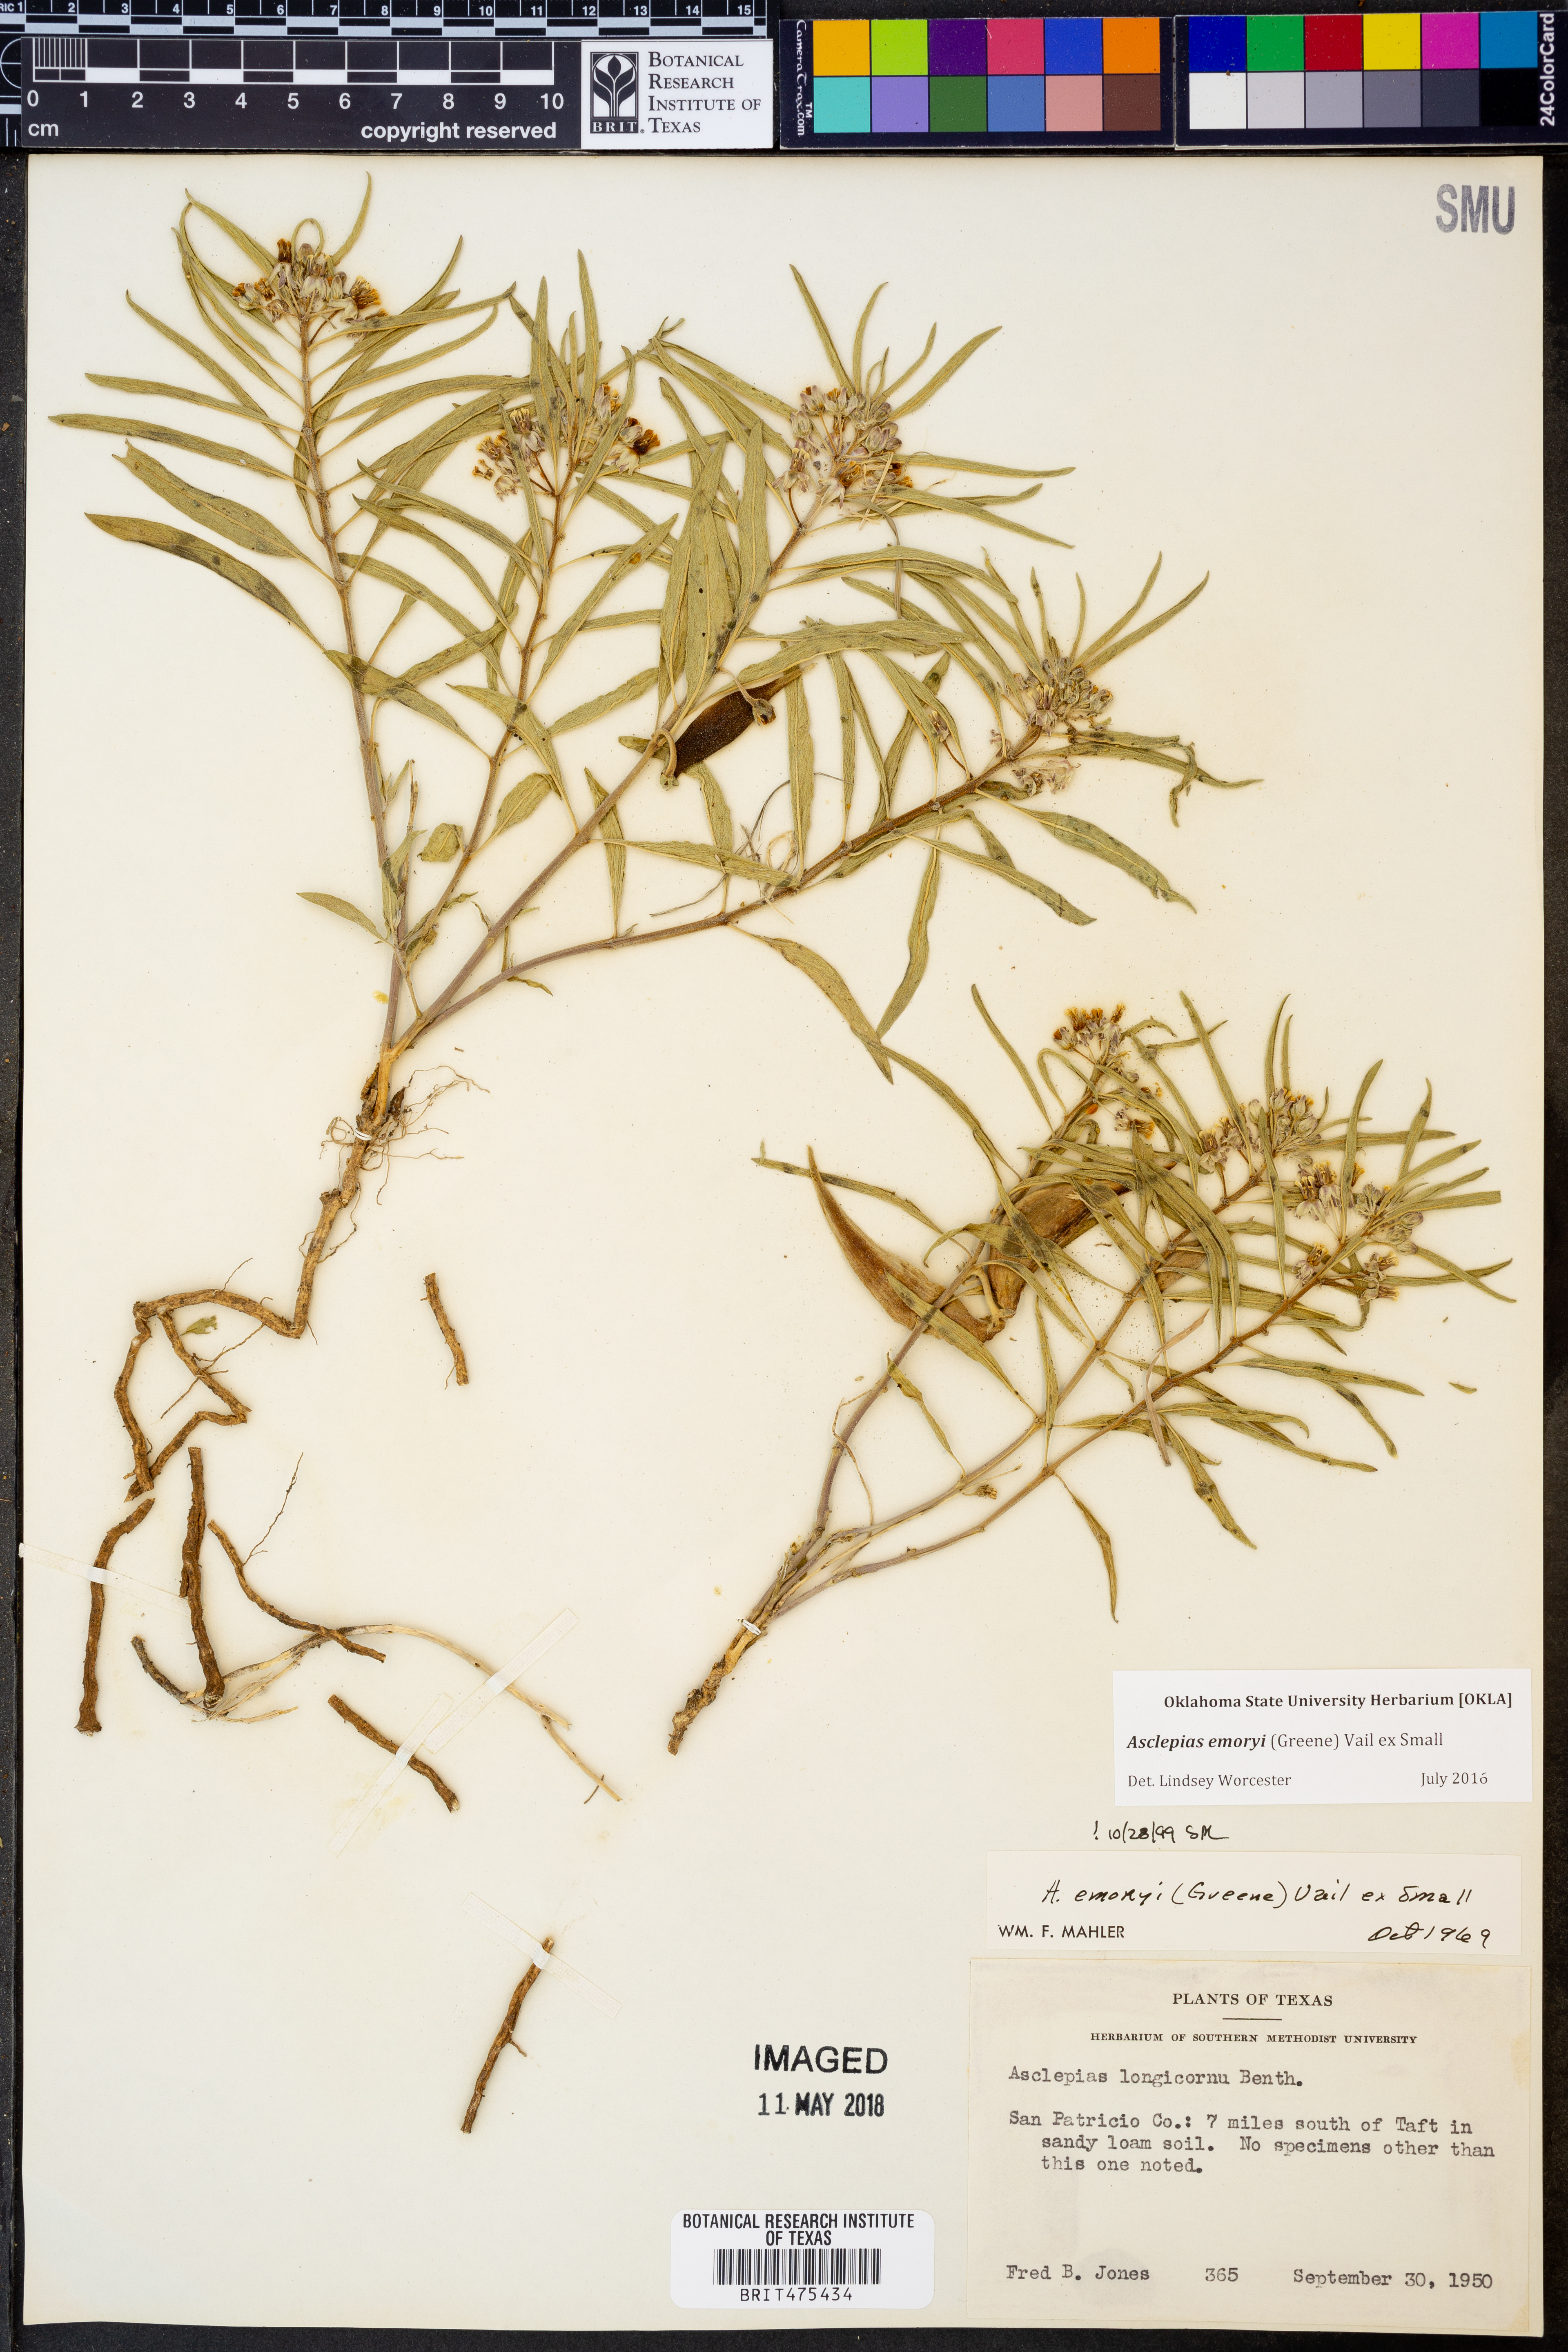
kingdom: Plantae
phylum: Tracheophyta
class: Magnoliopsida
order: Gentianales
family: Apocynaceae
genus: Asclepias
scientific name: Asclepias emoryi
